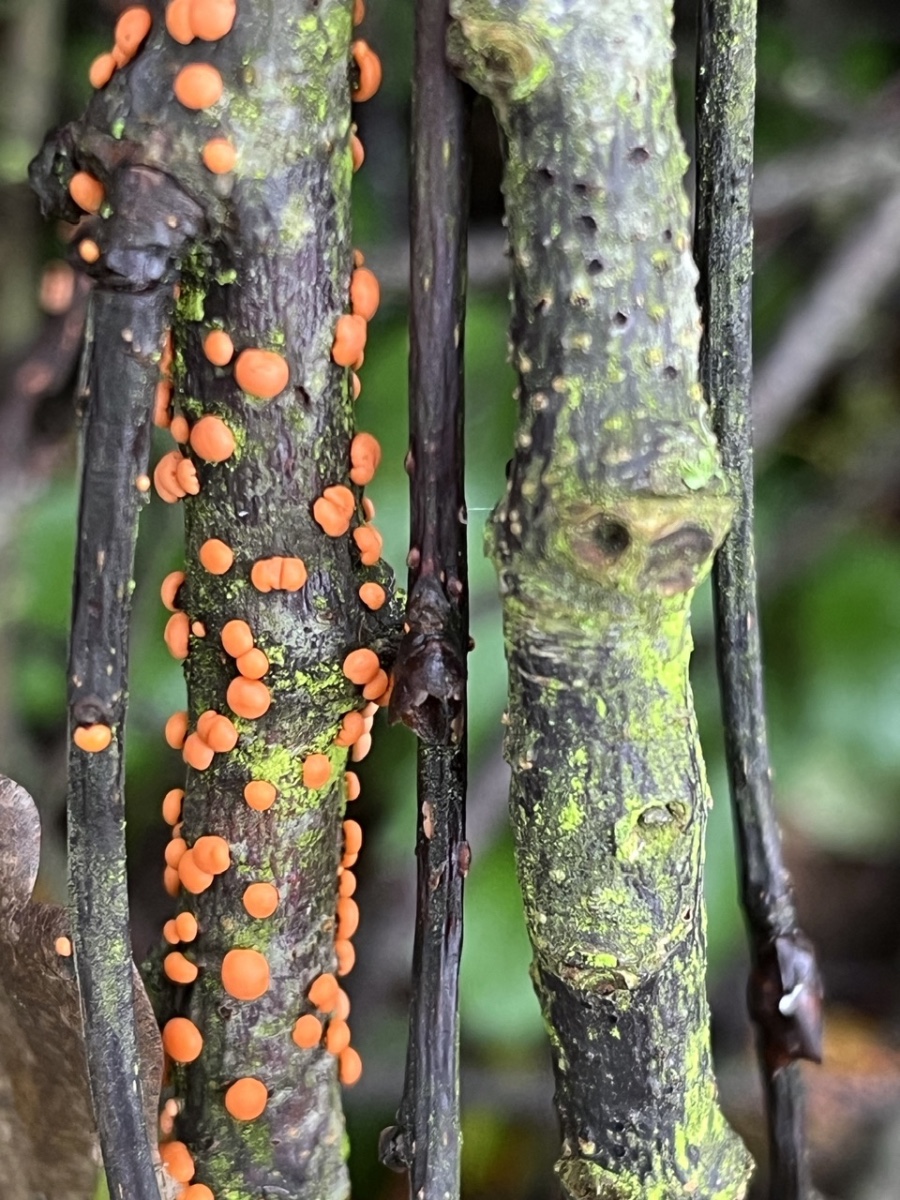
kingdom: Fungi
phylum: Ascomycota
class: Sordariomycetes
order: Hypocreales
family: Nectriaceae
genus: Nectria
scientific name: Nectria cinnabarina
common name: almindelig cinnobersvamp
